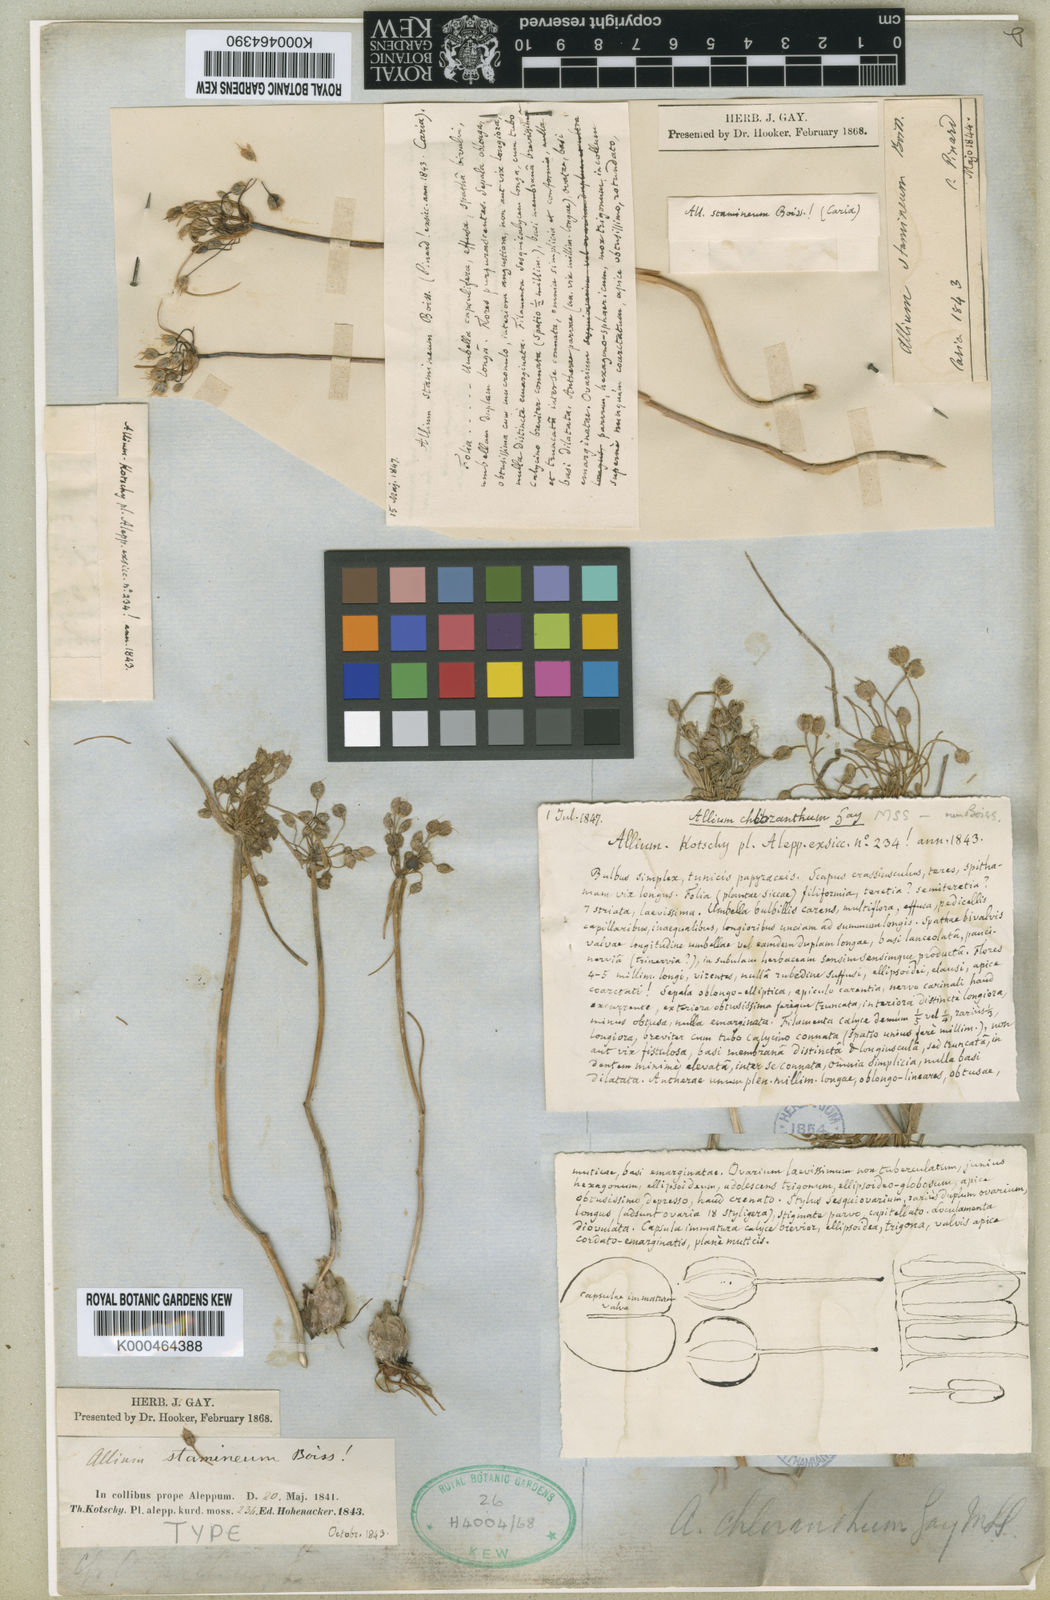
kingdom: Plantae
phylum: Tracheophyta
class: Liliopsida
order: Asparagales
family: Amaryllidaceae
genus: Allium
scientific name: Allium stamineum
